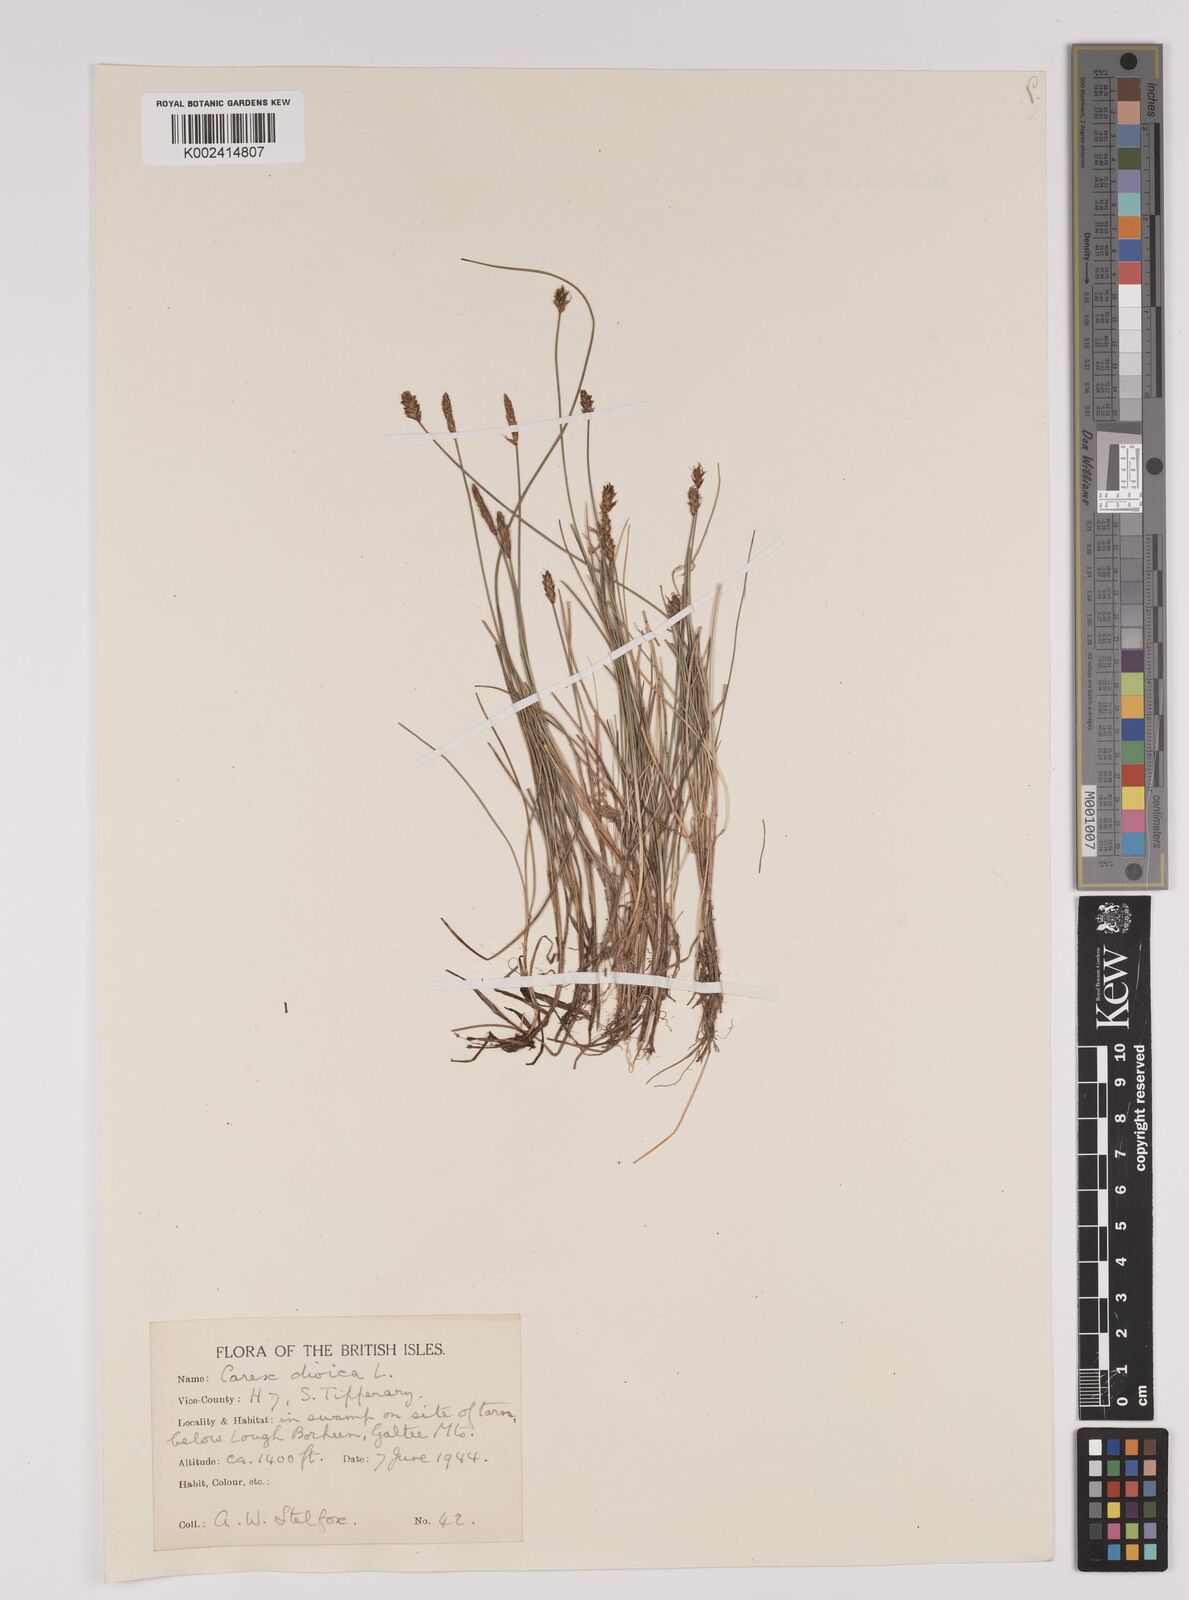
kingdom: Plantae
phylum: Tracheophyta
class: Liliopsida
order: Poales
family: Cyperaceae
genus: Carex
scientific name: Carex dioica
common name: Dioecious sedge
